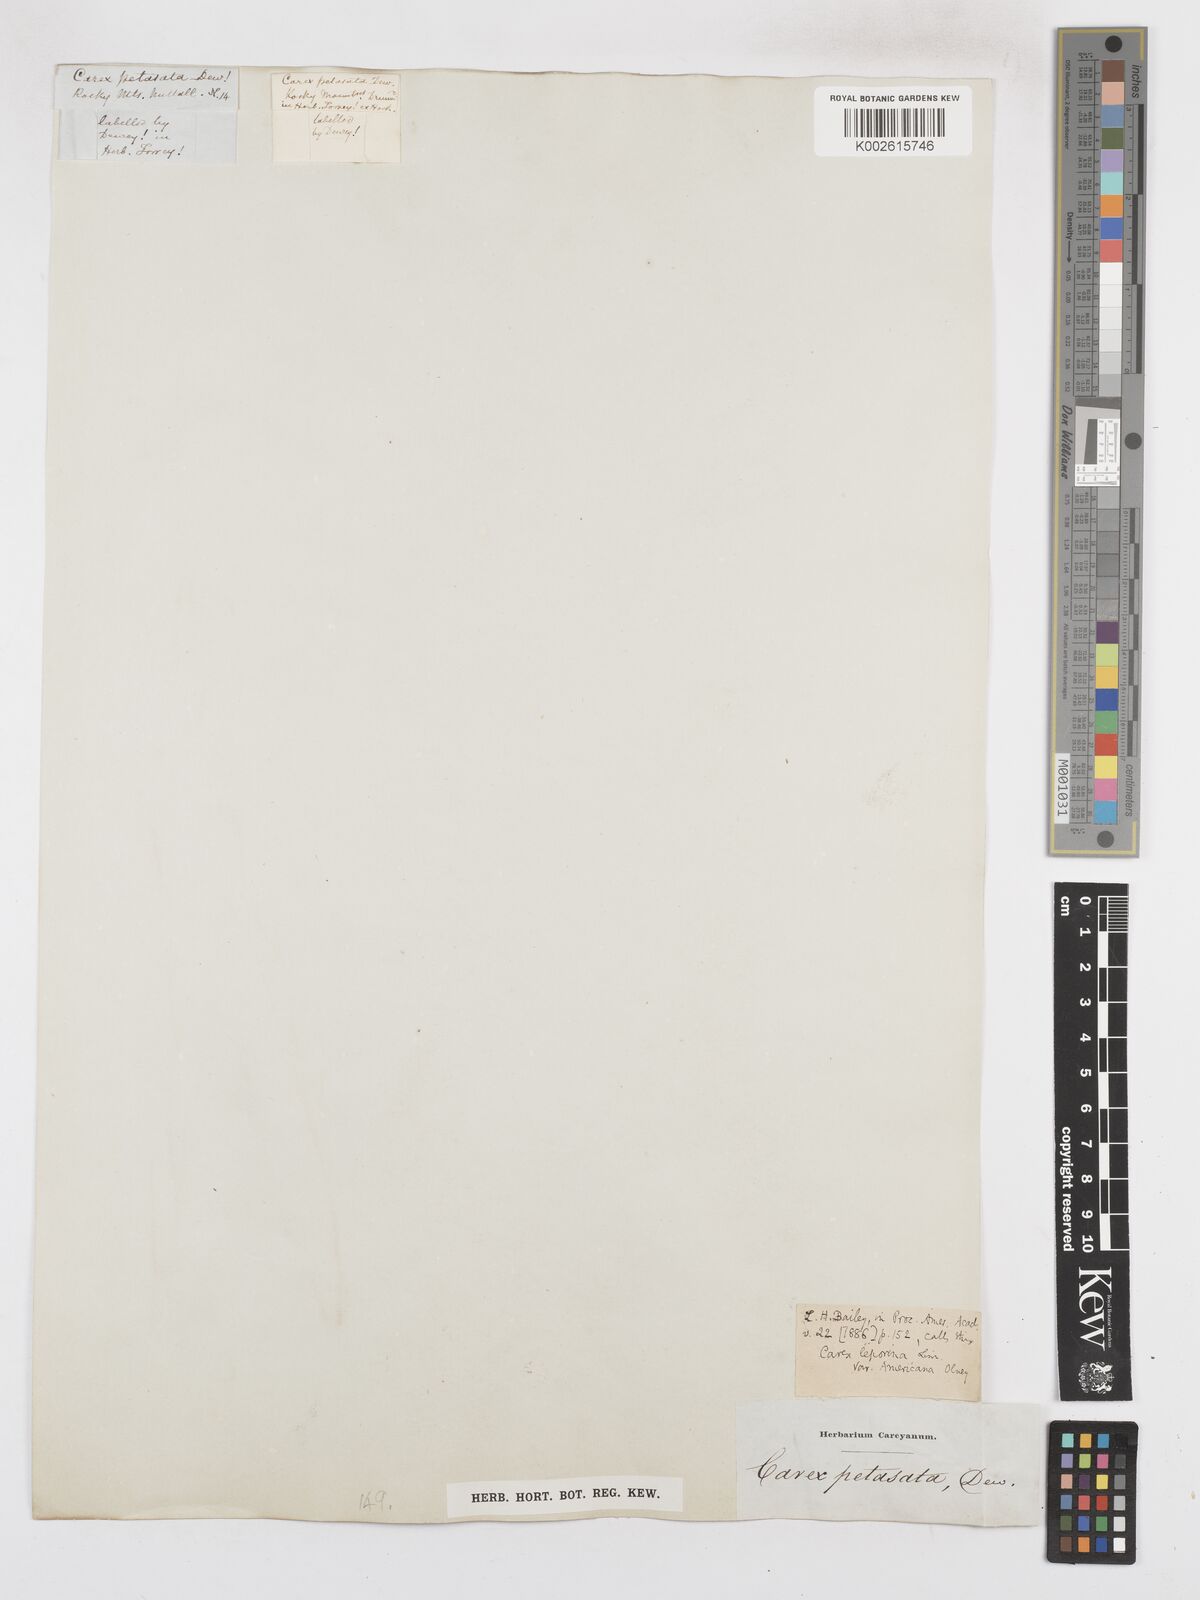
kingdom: Plantae
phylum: Tracheophyta
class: Liliopsida
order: Poales
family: Cyperaceae
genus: Carex
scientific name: Carex phaeocephala
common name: Brown-head sedge
